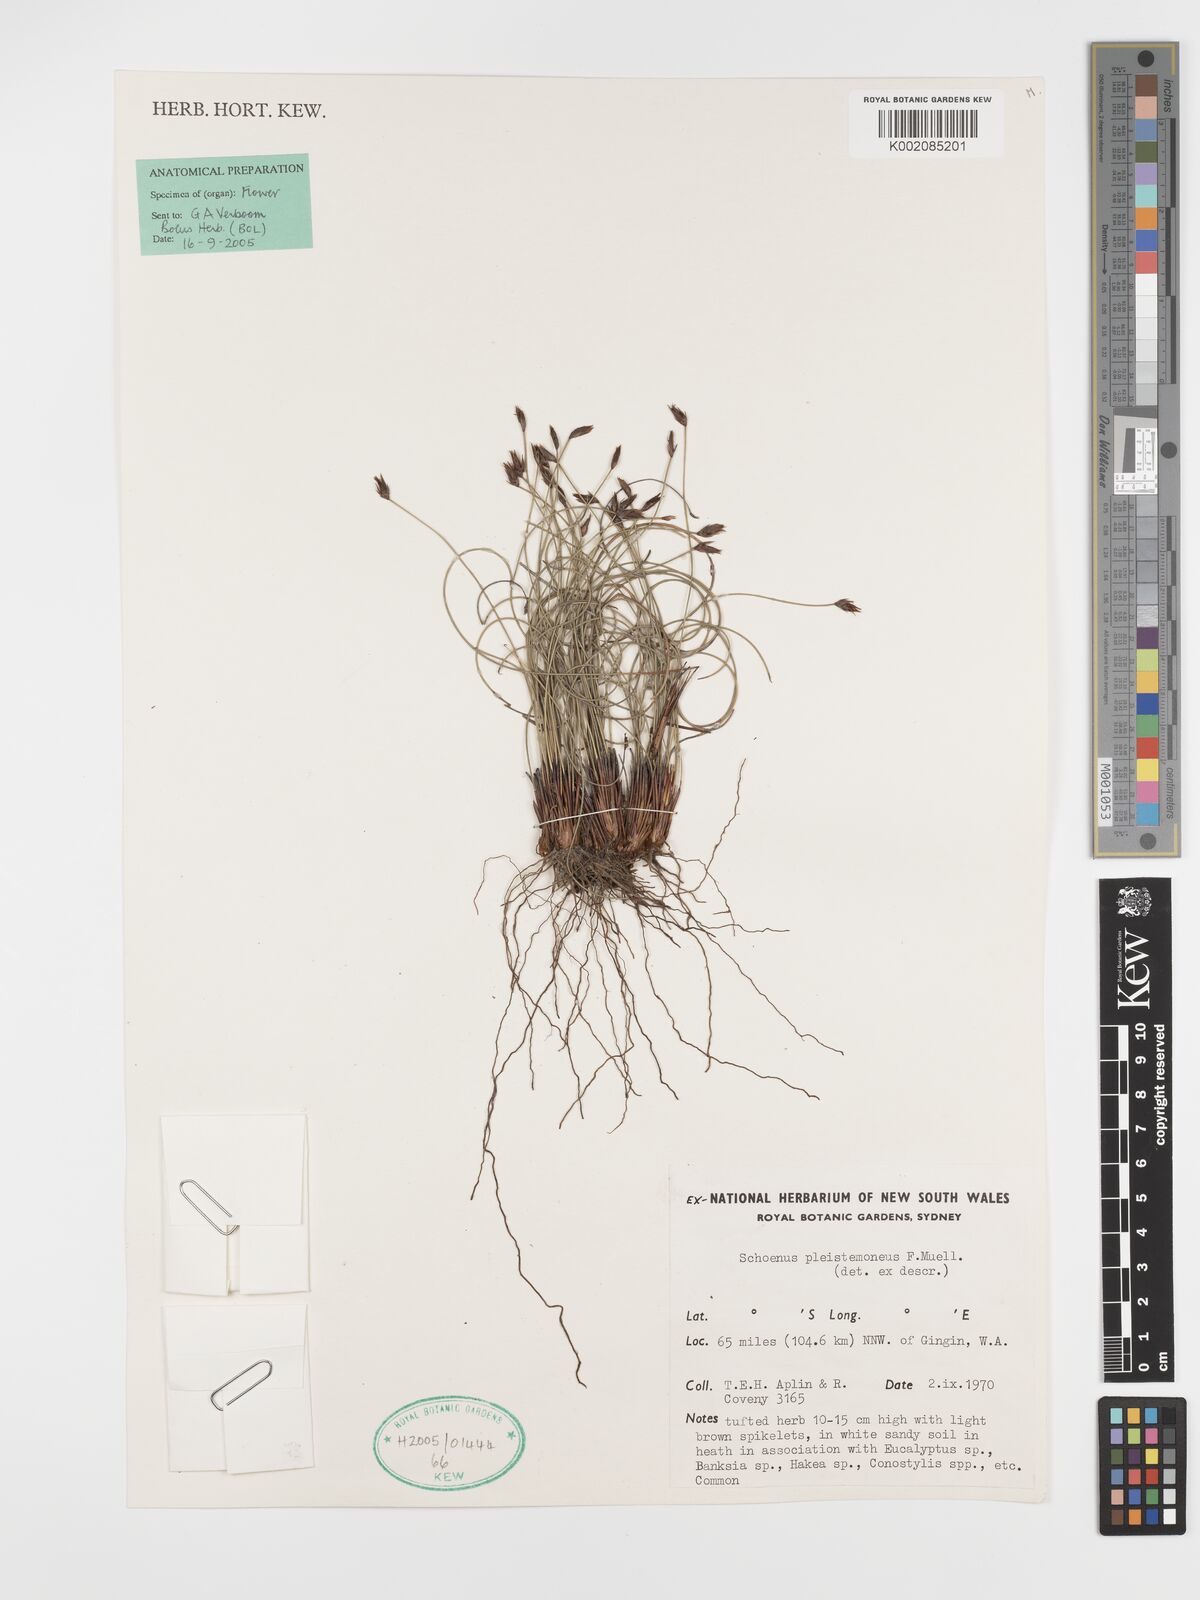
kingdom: Plantae
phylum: Tracheophyta
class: Liliopsida
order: Poales
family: Cyperaceae
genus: Schoenus
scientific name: Schoenus pleiostemoneus
